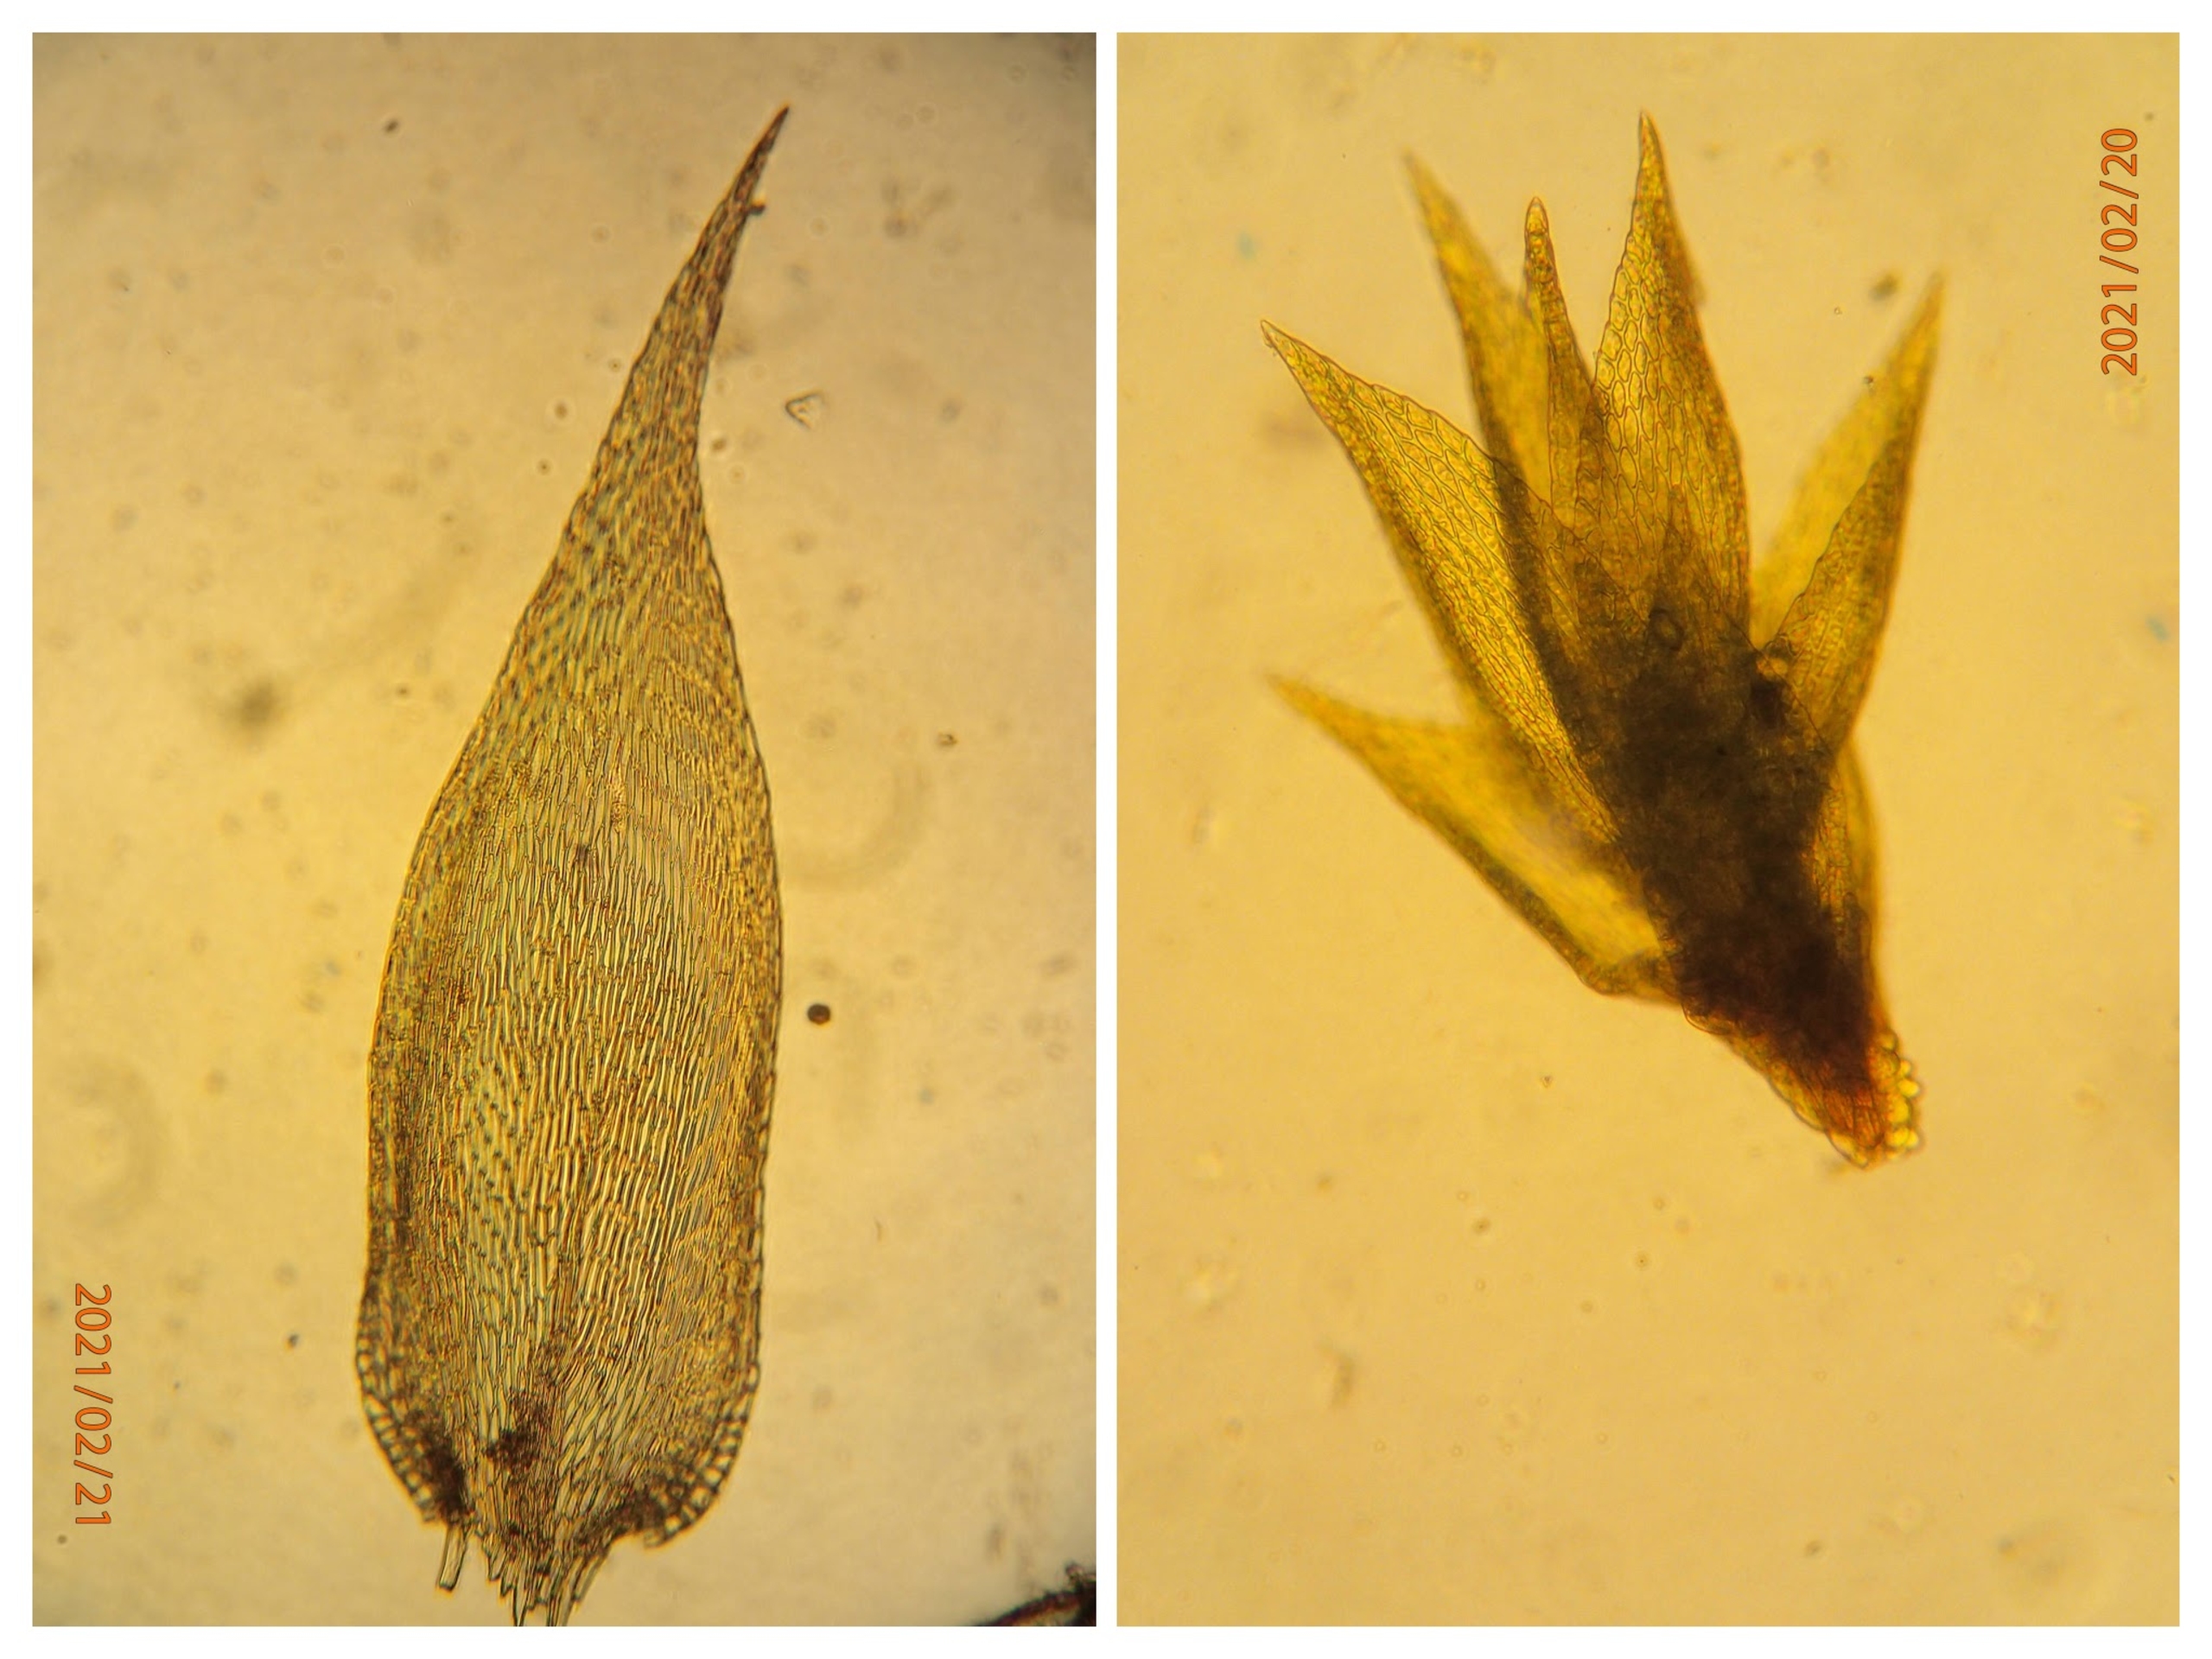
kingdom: Plantae
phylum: Bryophyta
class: Bryopsida
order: Hypnales
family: Pylaisiadelphaceae
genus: Platygyrium
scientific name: Platygyrium repens
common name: Mørk yngleknop
